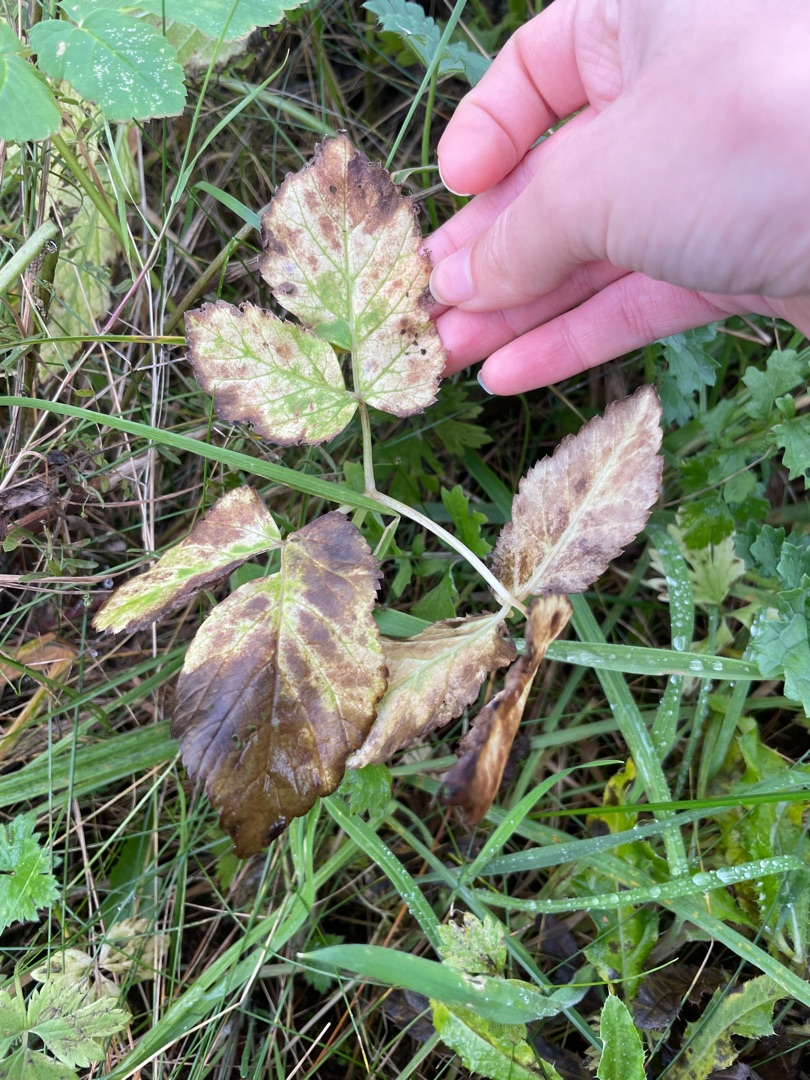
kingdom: Plantae
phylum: Tracheophyta
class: Magnoliopsida
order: Apiales
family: Apiaceae
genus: Aegopodium
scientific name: Aegopodium podagraria
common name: Skvalderkål
